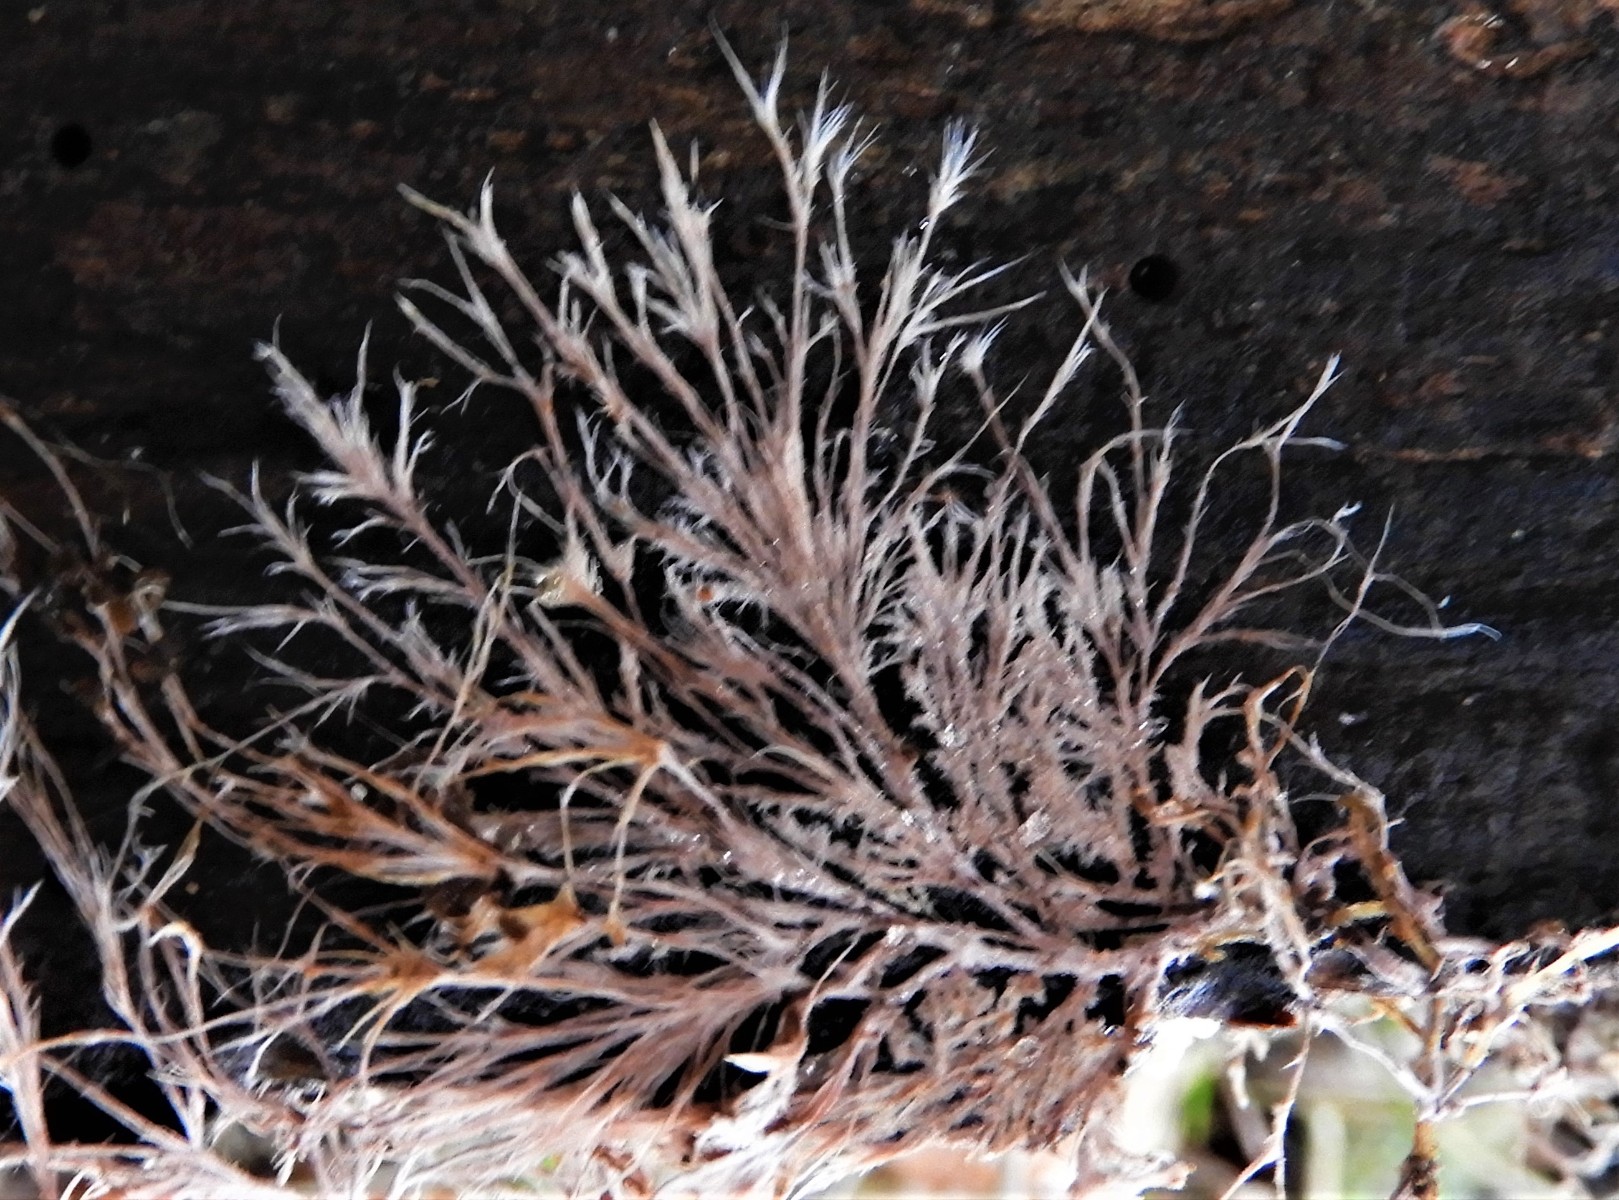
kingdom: Fungi
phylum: Basidiomycota
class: Agaricomycetes
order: Polyporales
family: Steccherinaceae
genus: Steccherinum
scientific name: Steccherinum fimbriatum
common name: trådet skønpig
